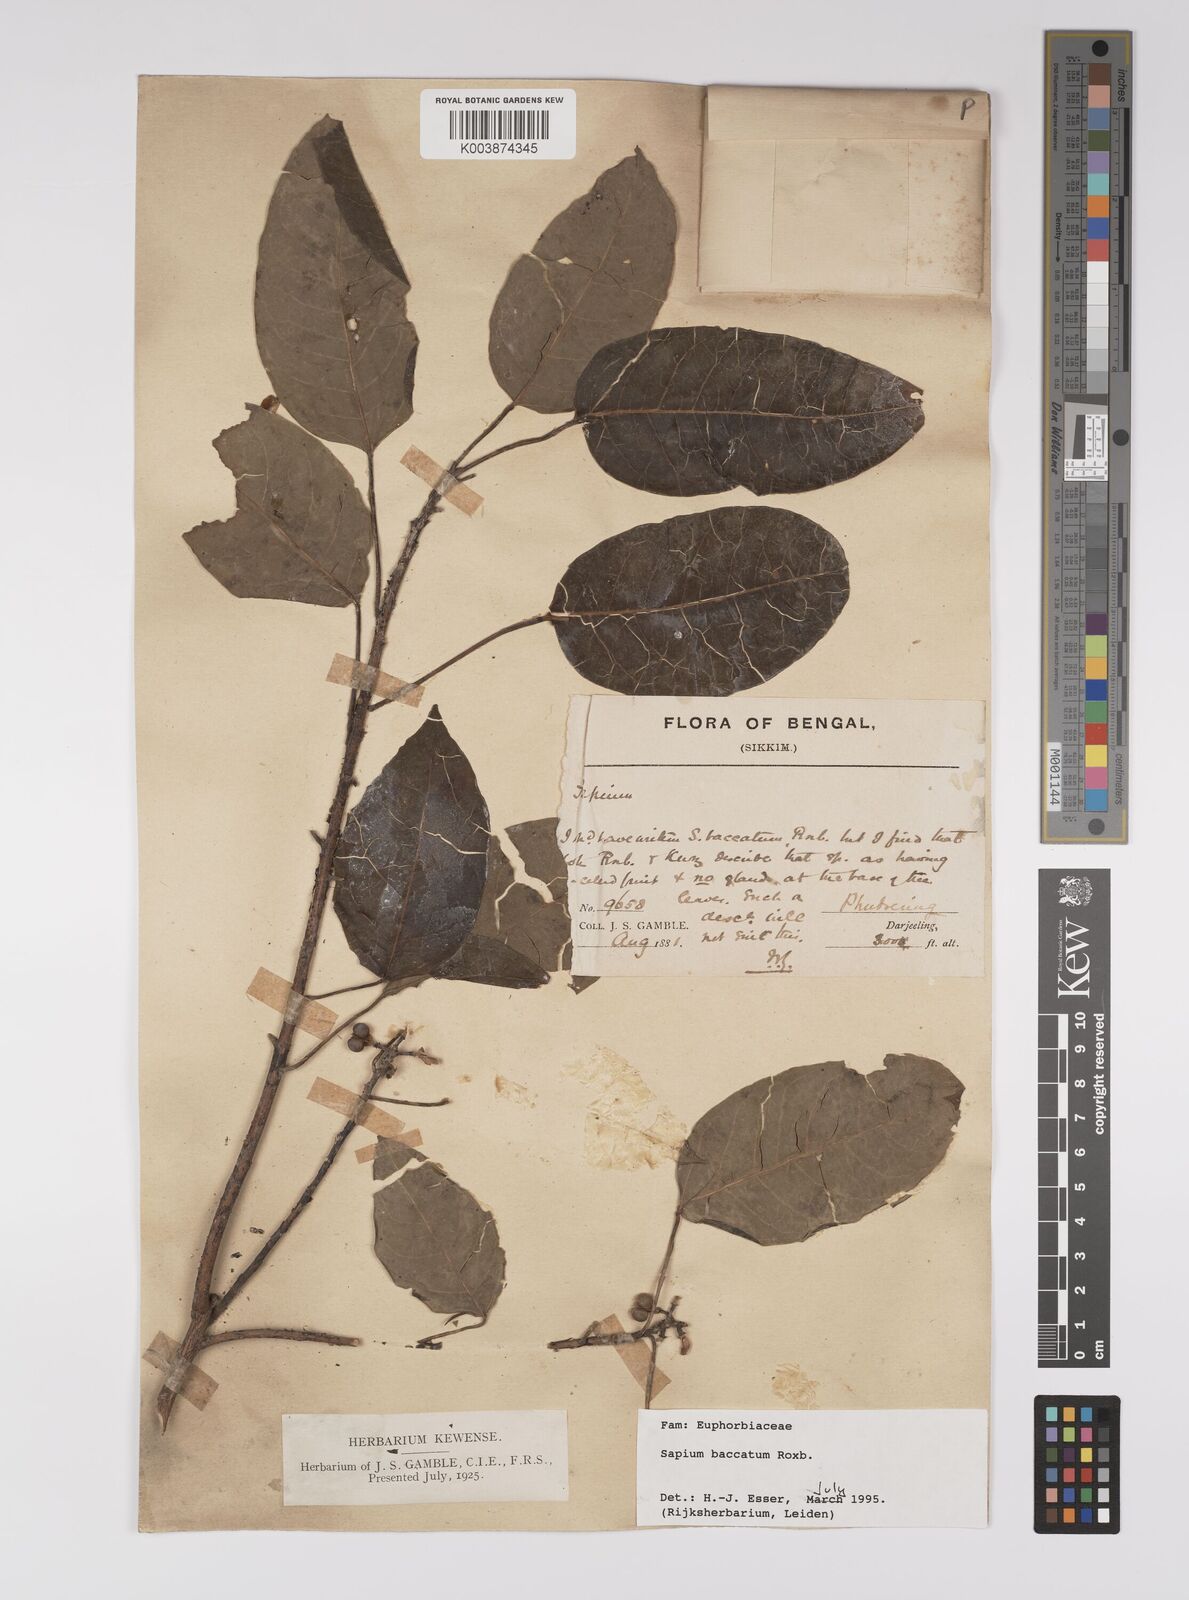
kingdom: Plantae
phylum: Tracheophyta
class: Magnoliopsida
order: Malpighiales
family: Euphorbiaceae
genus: Balakata
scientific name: Balakata baccata
